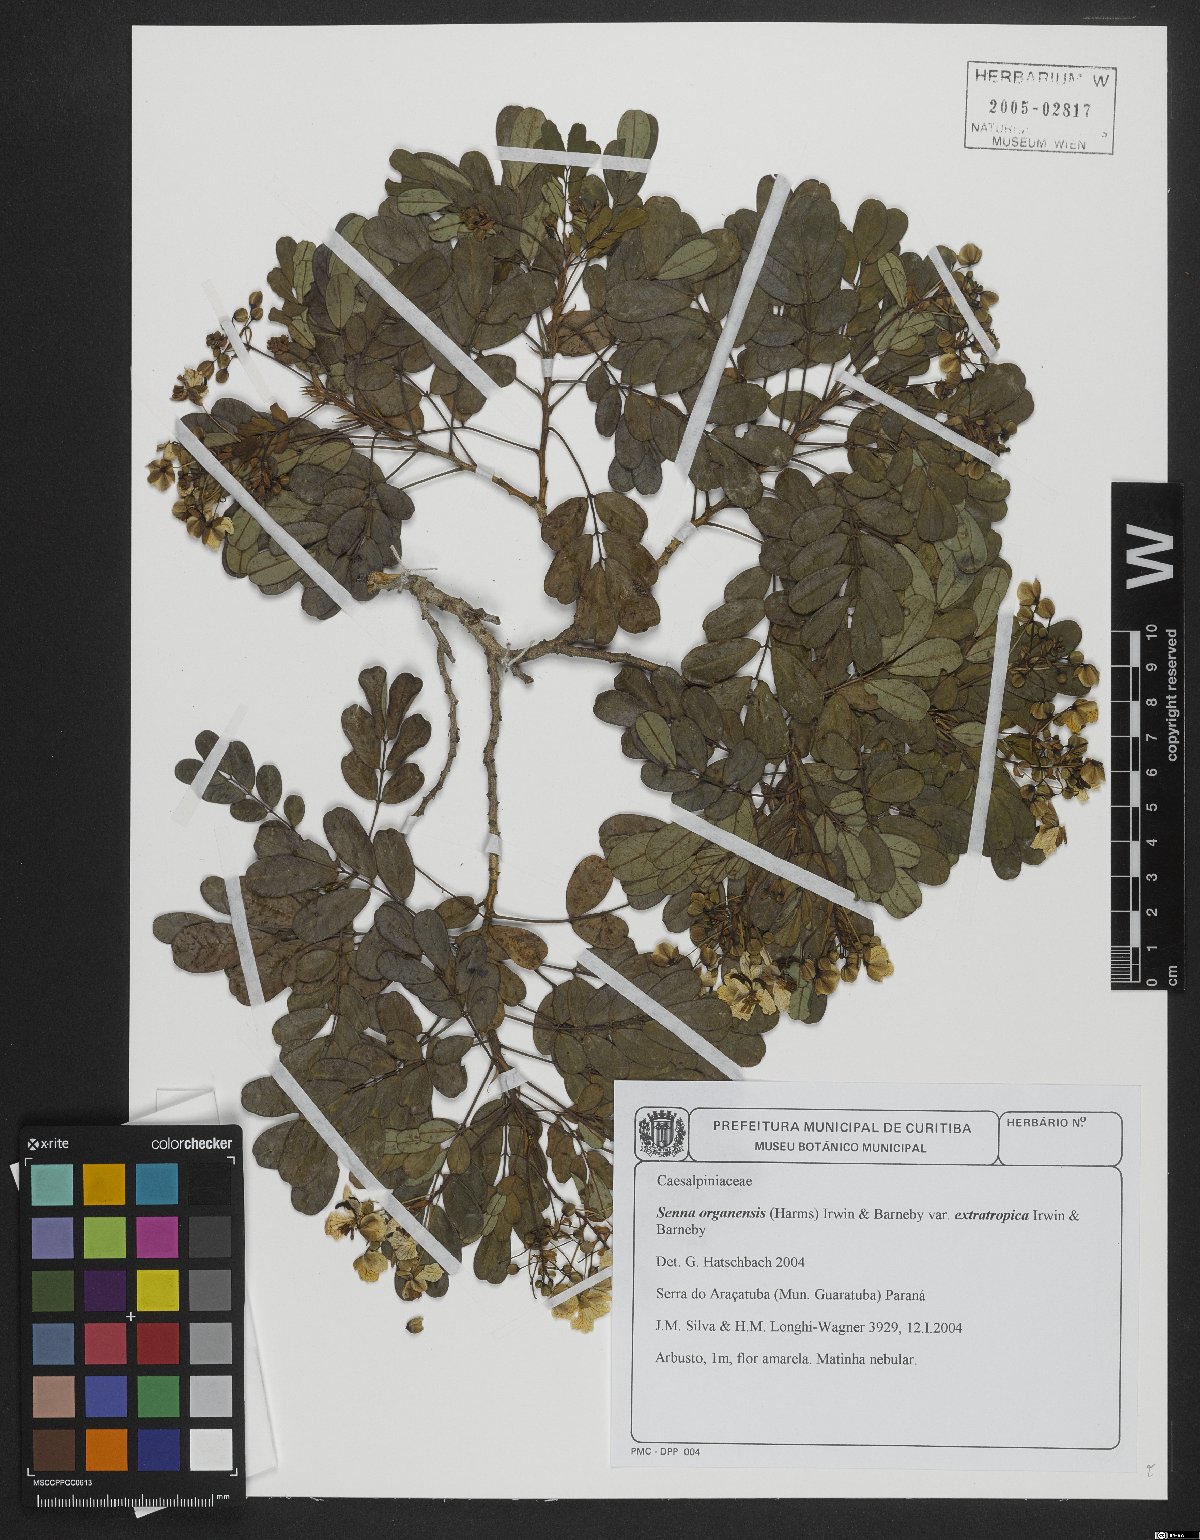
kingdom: Plantae
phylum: Tracheophyta
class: Magnoliopsida
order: Fabales
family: Fabaceae
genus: Senna
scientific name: Senna organensis
